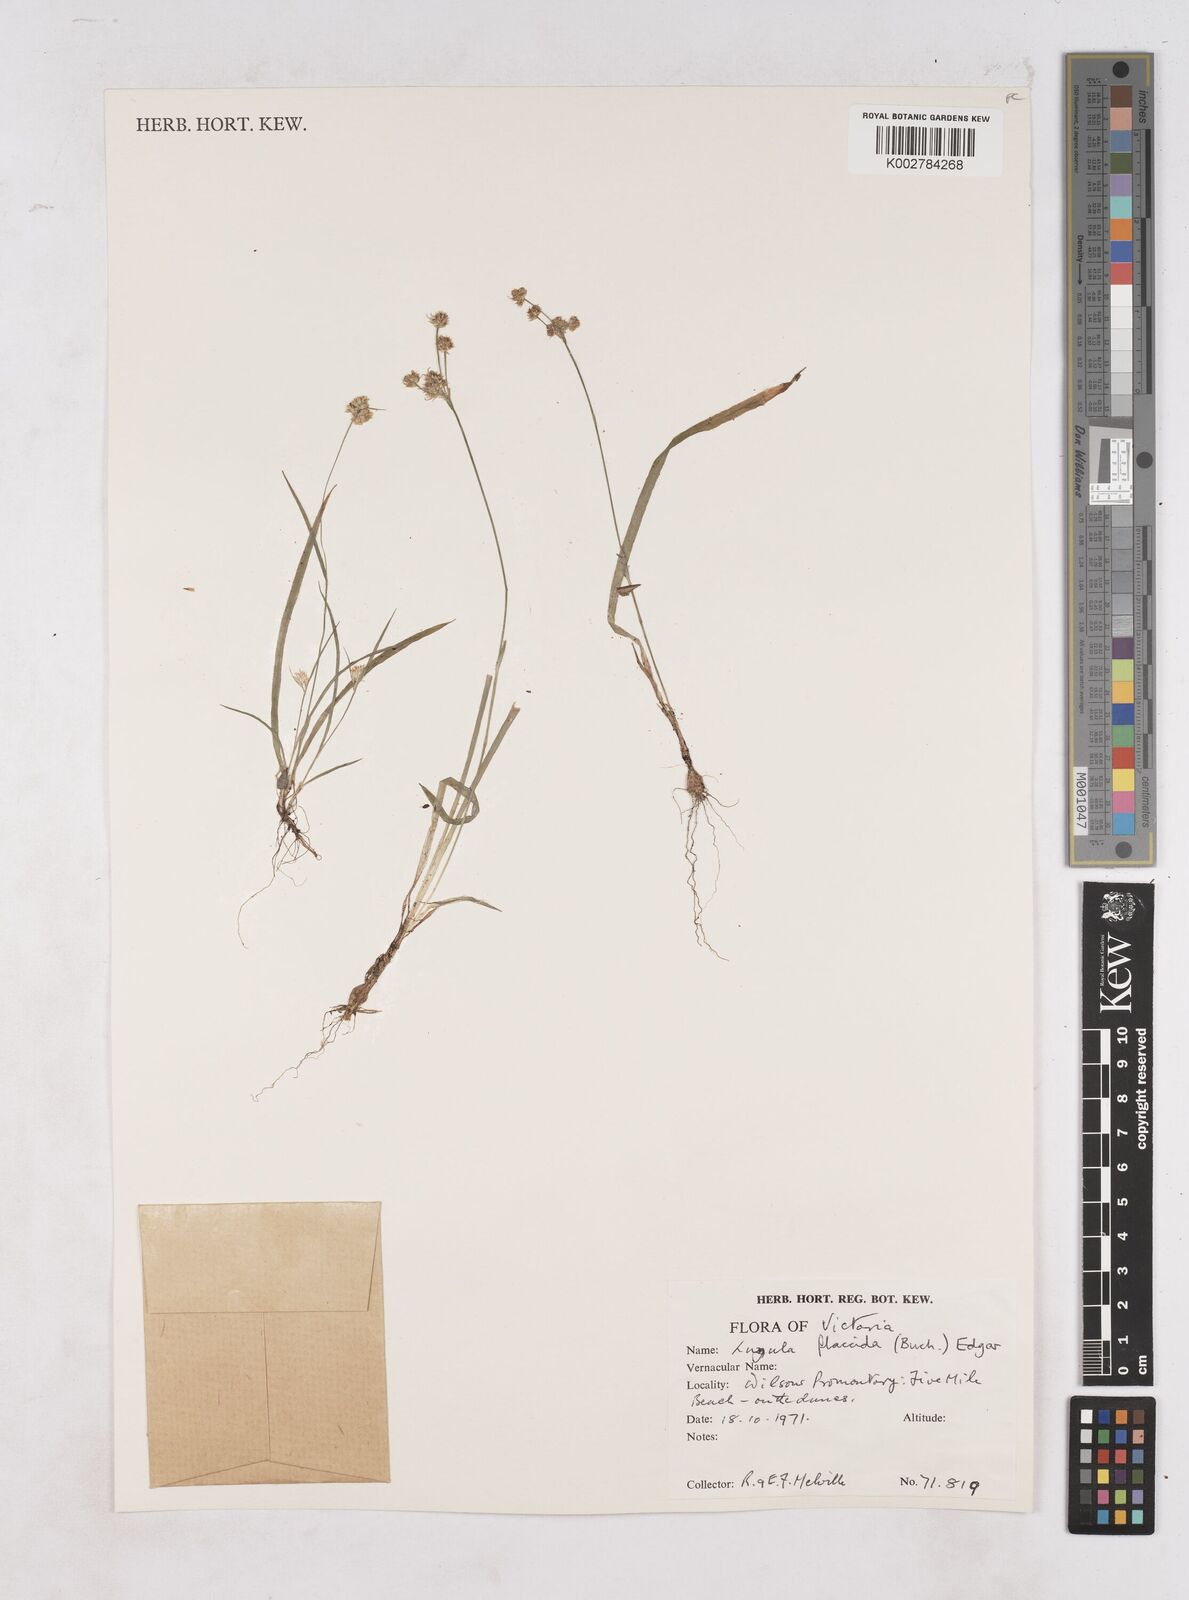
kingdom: Plantae
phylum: Tracheophyta
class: Liliopsida
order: Poales
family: Juncaceae
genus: Luzula
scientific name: Luzula flaccida
